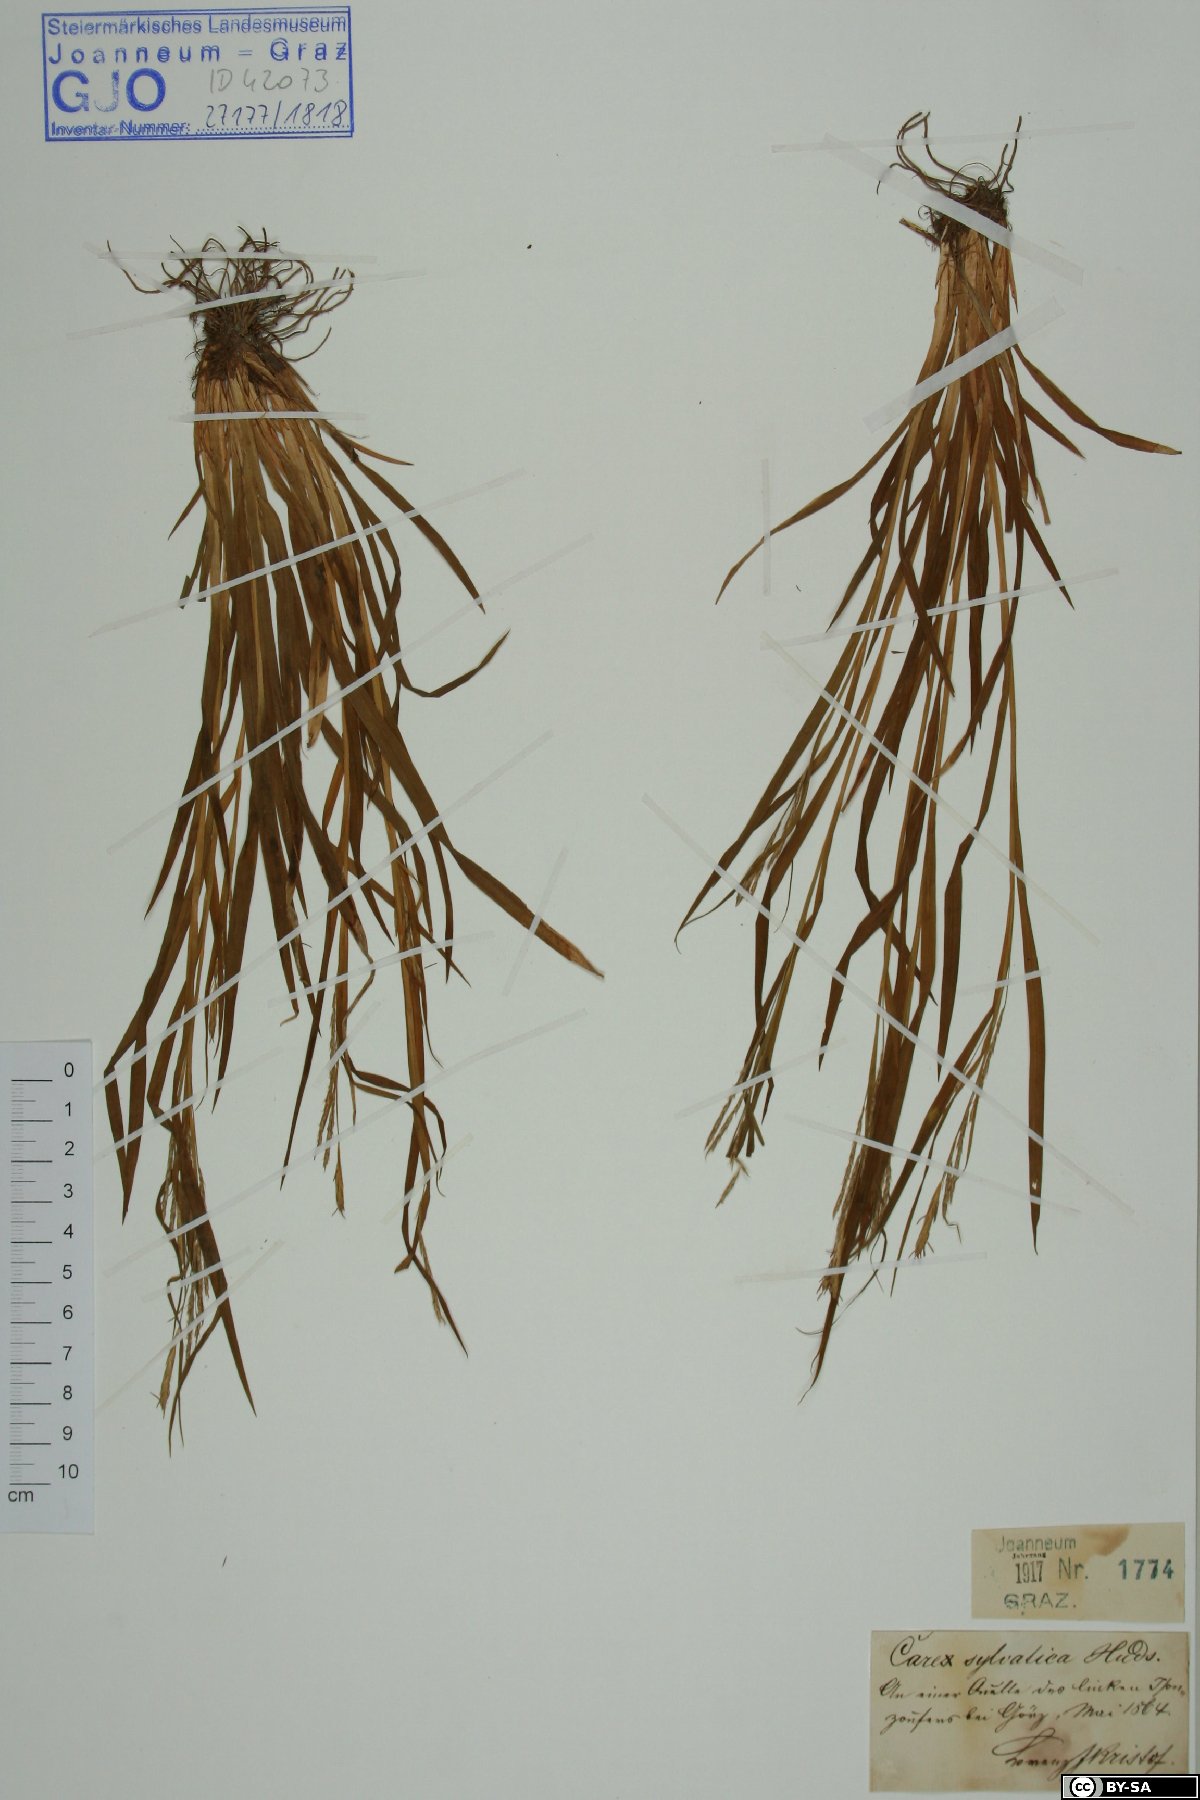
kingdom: Plantae
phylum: Tracheophyta
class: Liliopsida
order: Poales
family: Cyperaceae
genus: Carex
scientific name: Carex sylvatica
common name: Wood-sedge
